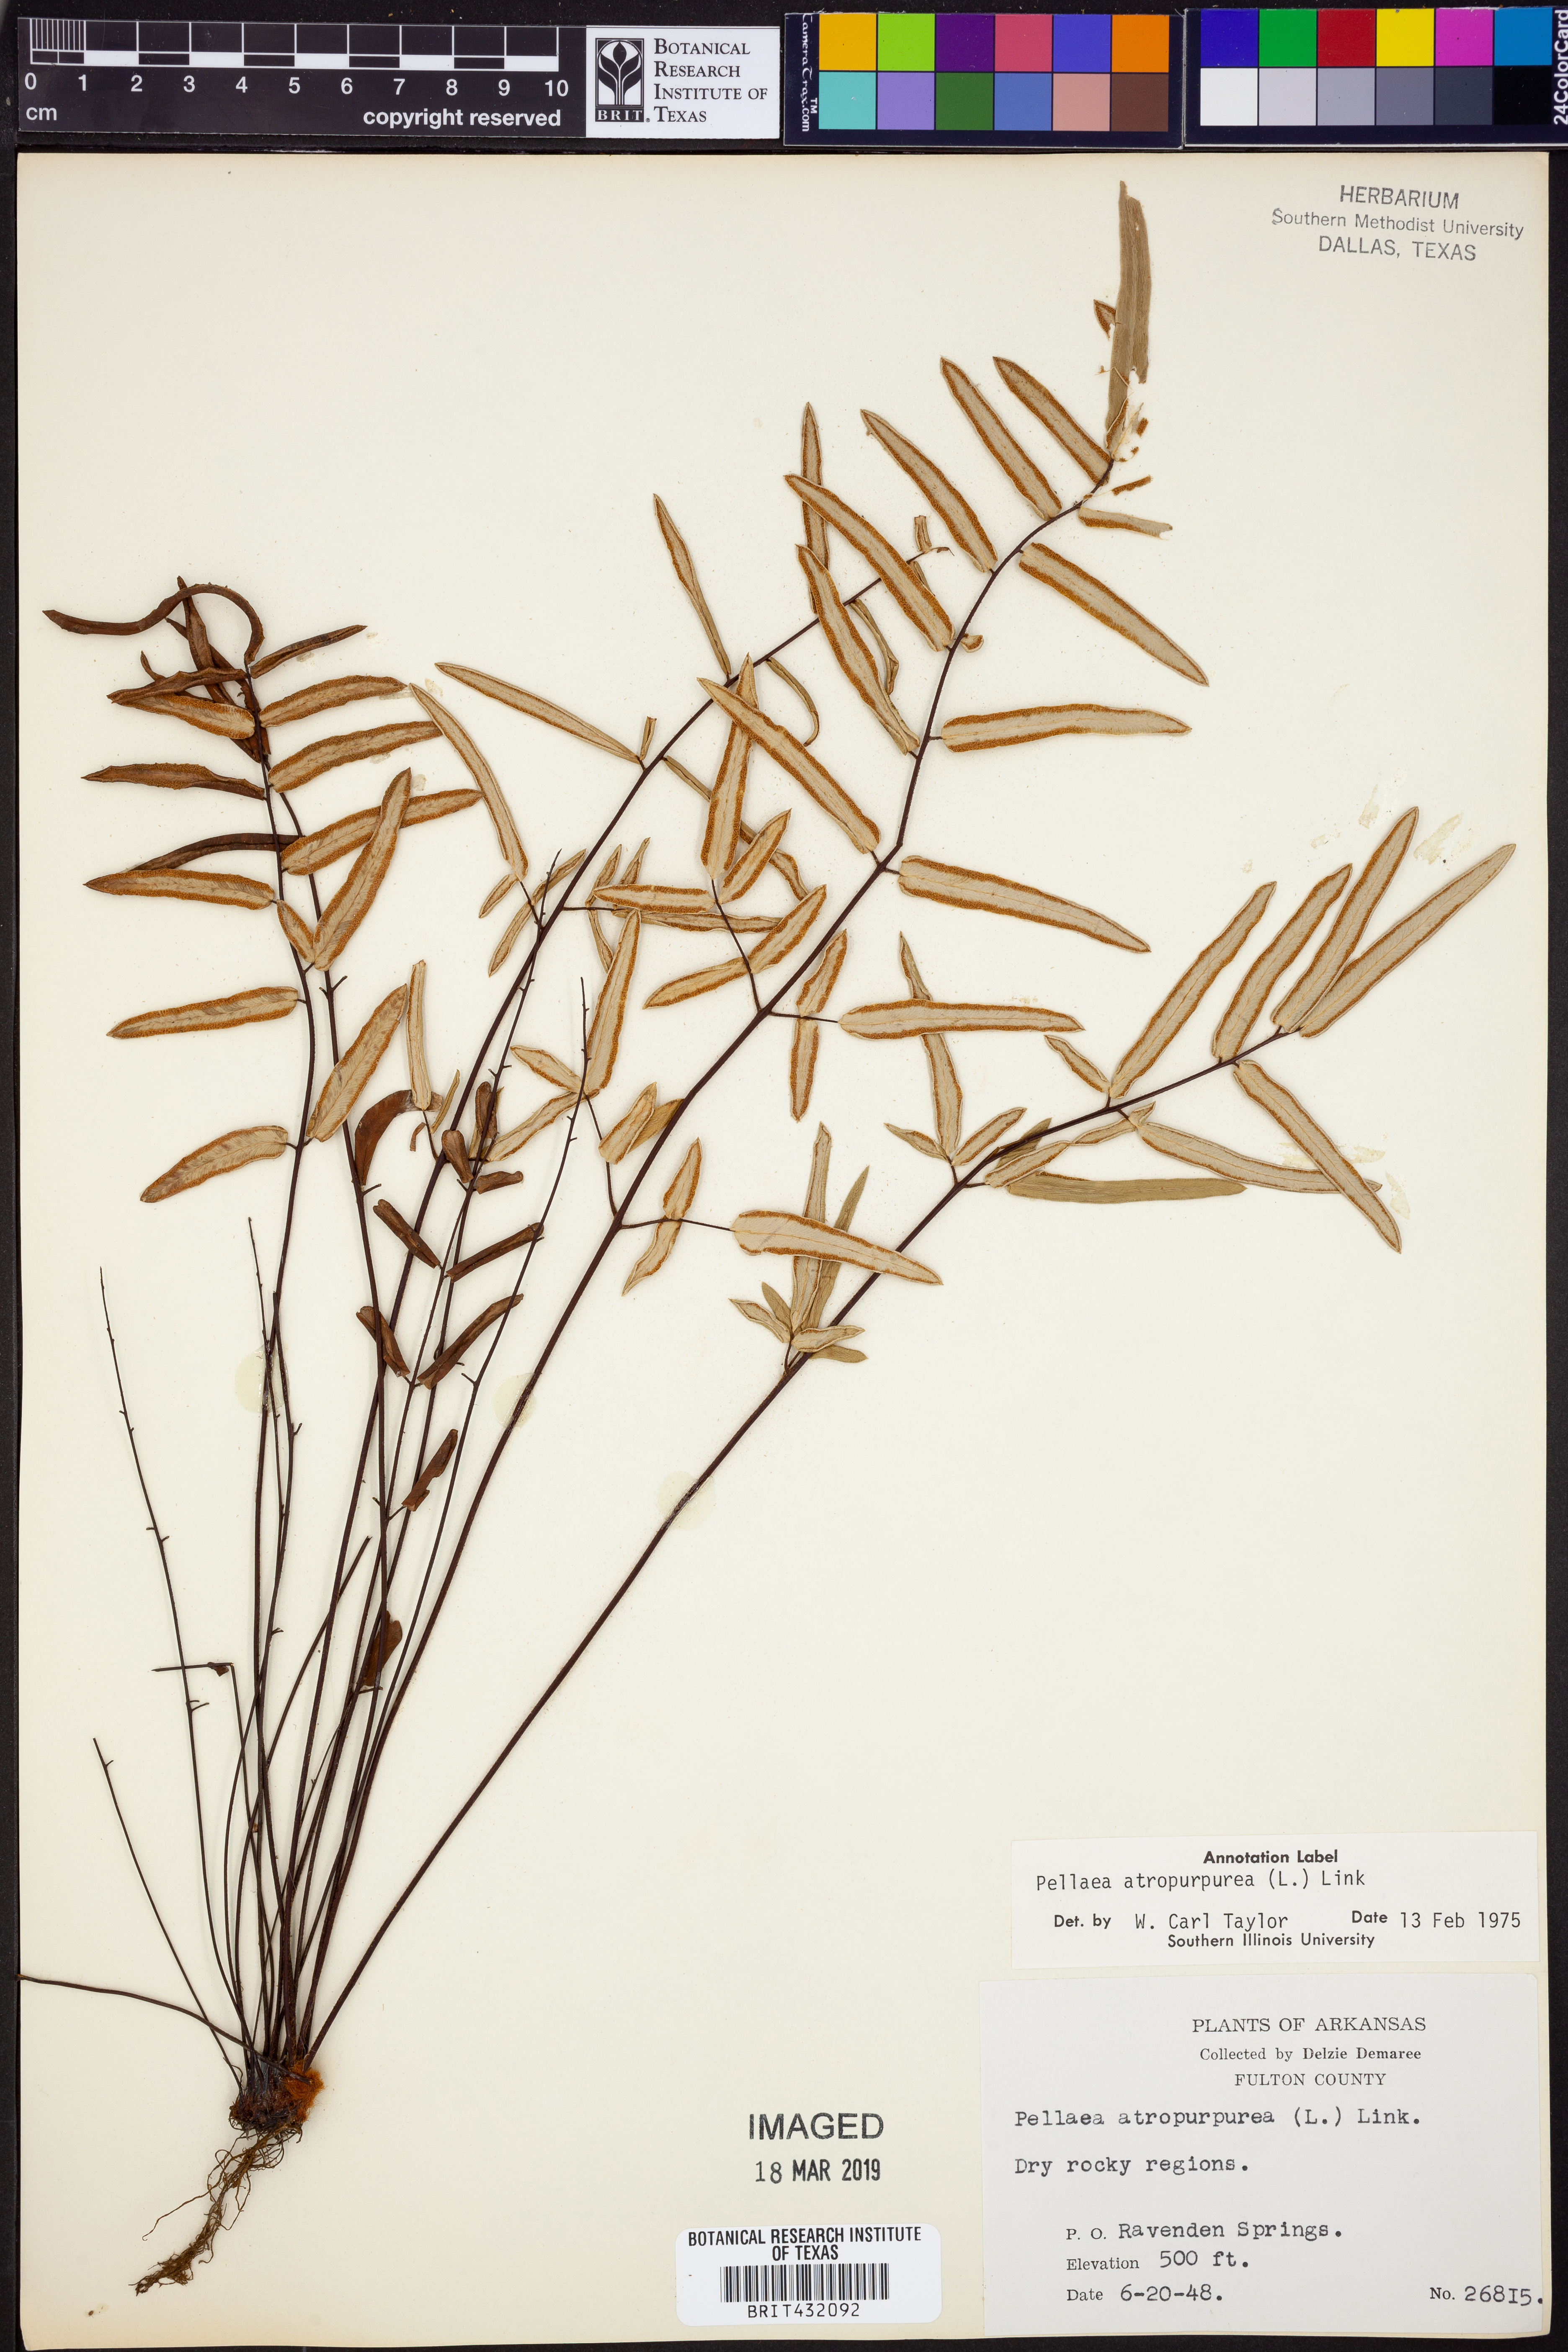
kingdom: Plantae
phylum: Tracheophyta
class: Polypodiopsida
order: Polypodiales
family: Pteridaceae
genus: Pellaea
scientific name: Pellaea atropurpurea
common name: Hairy cliffbrake
